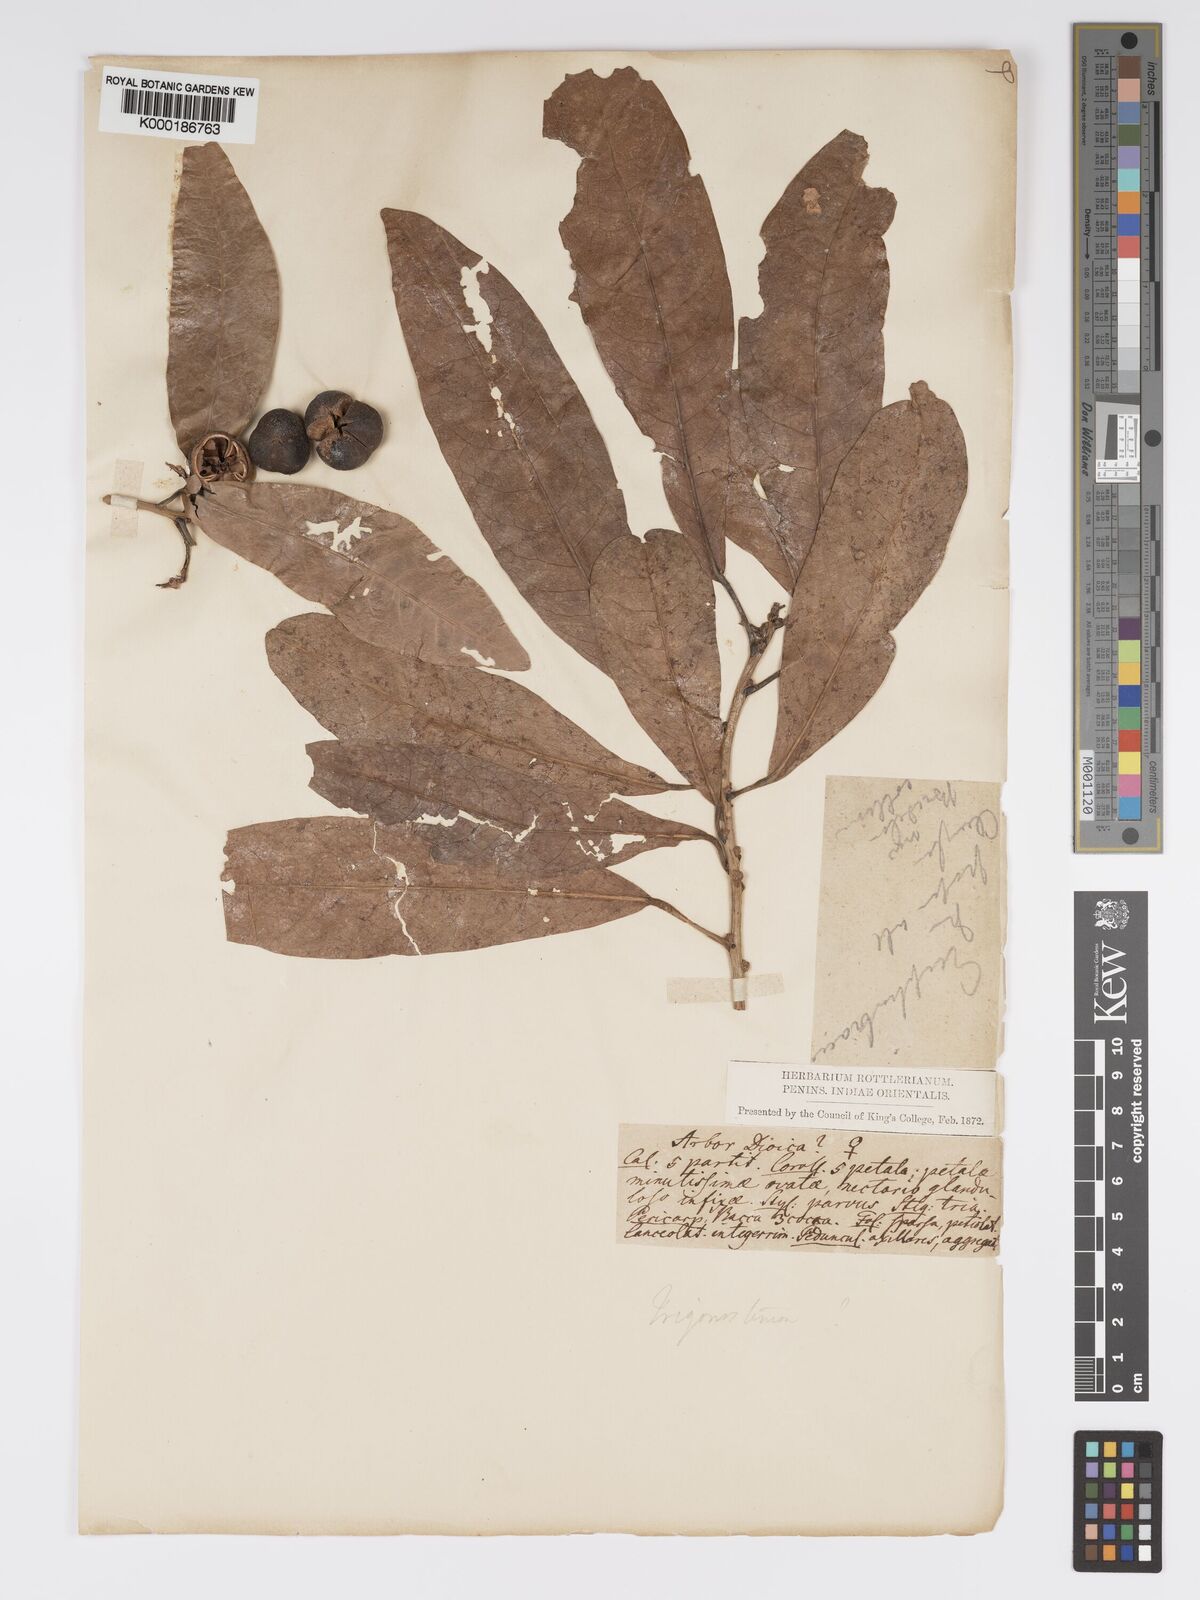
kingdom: Plantae
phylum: Tracheophyta
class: Magnoliopsida
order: Malpighiales
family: Phyllanthaceae
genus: Actephila
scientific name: Actephila excelsa
